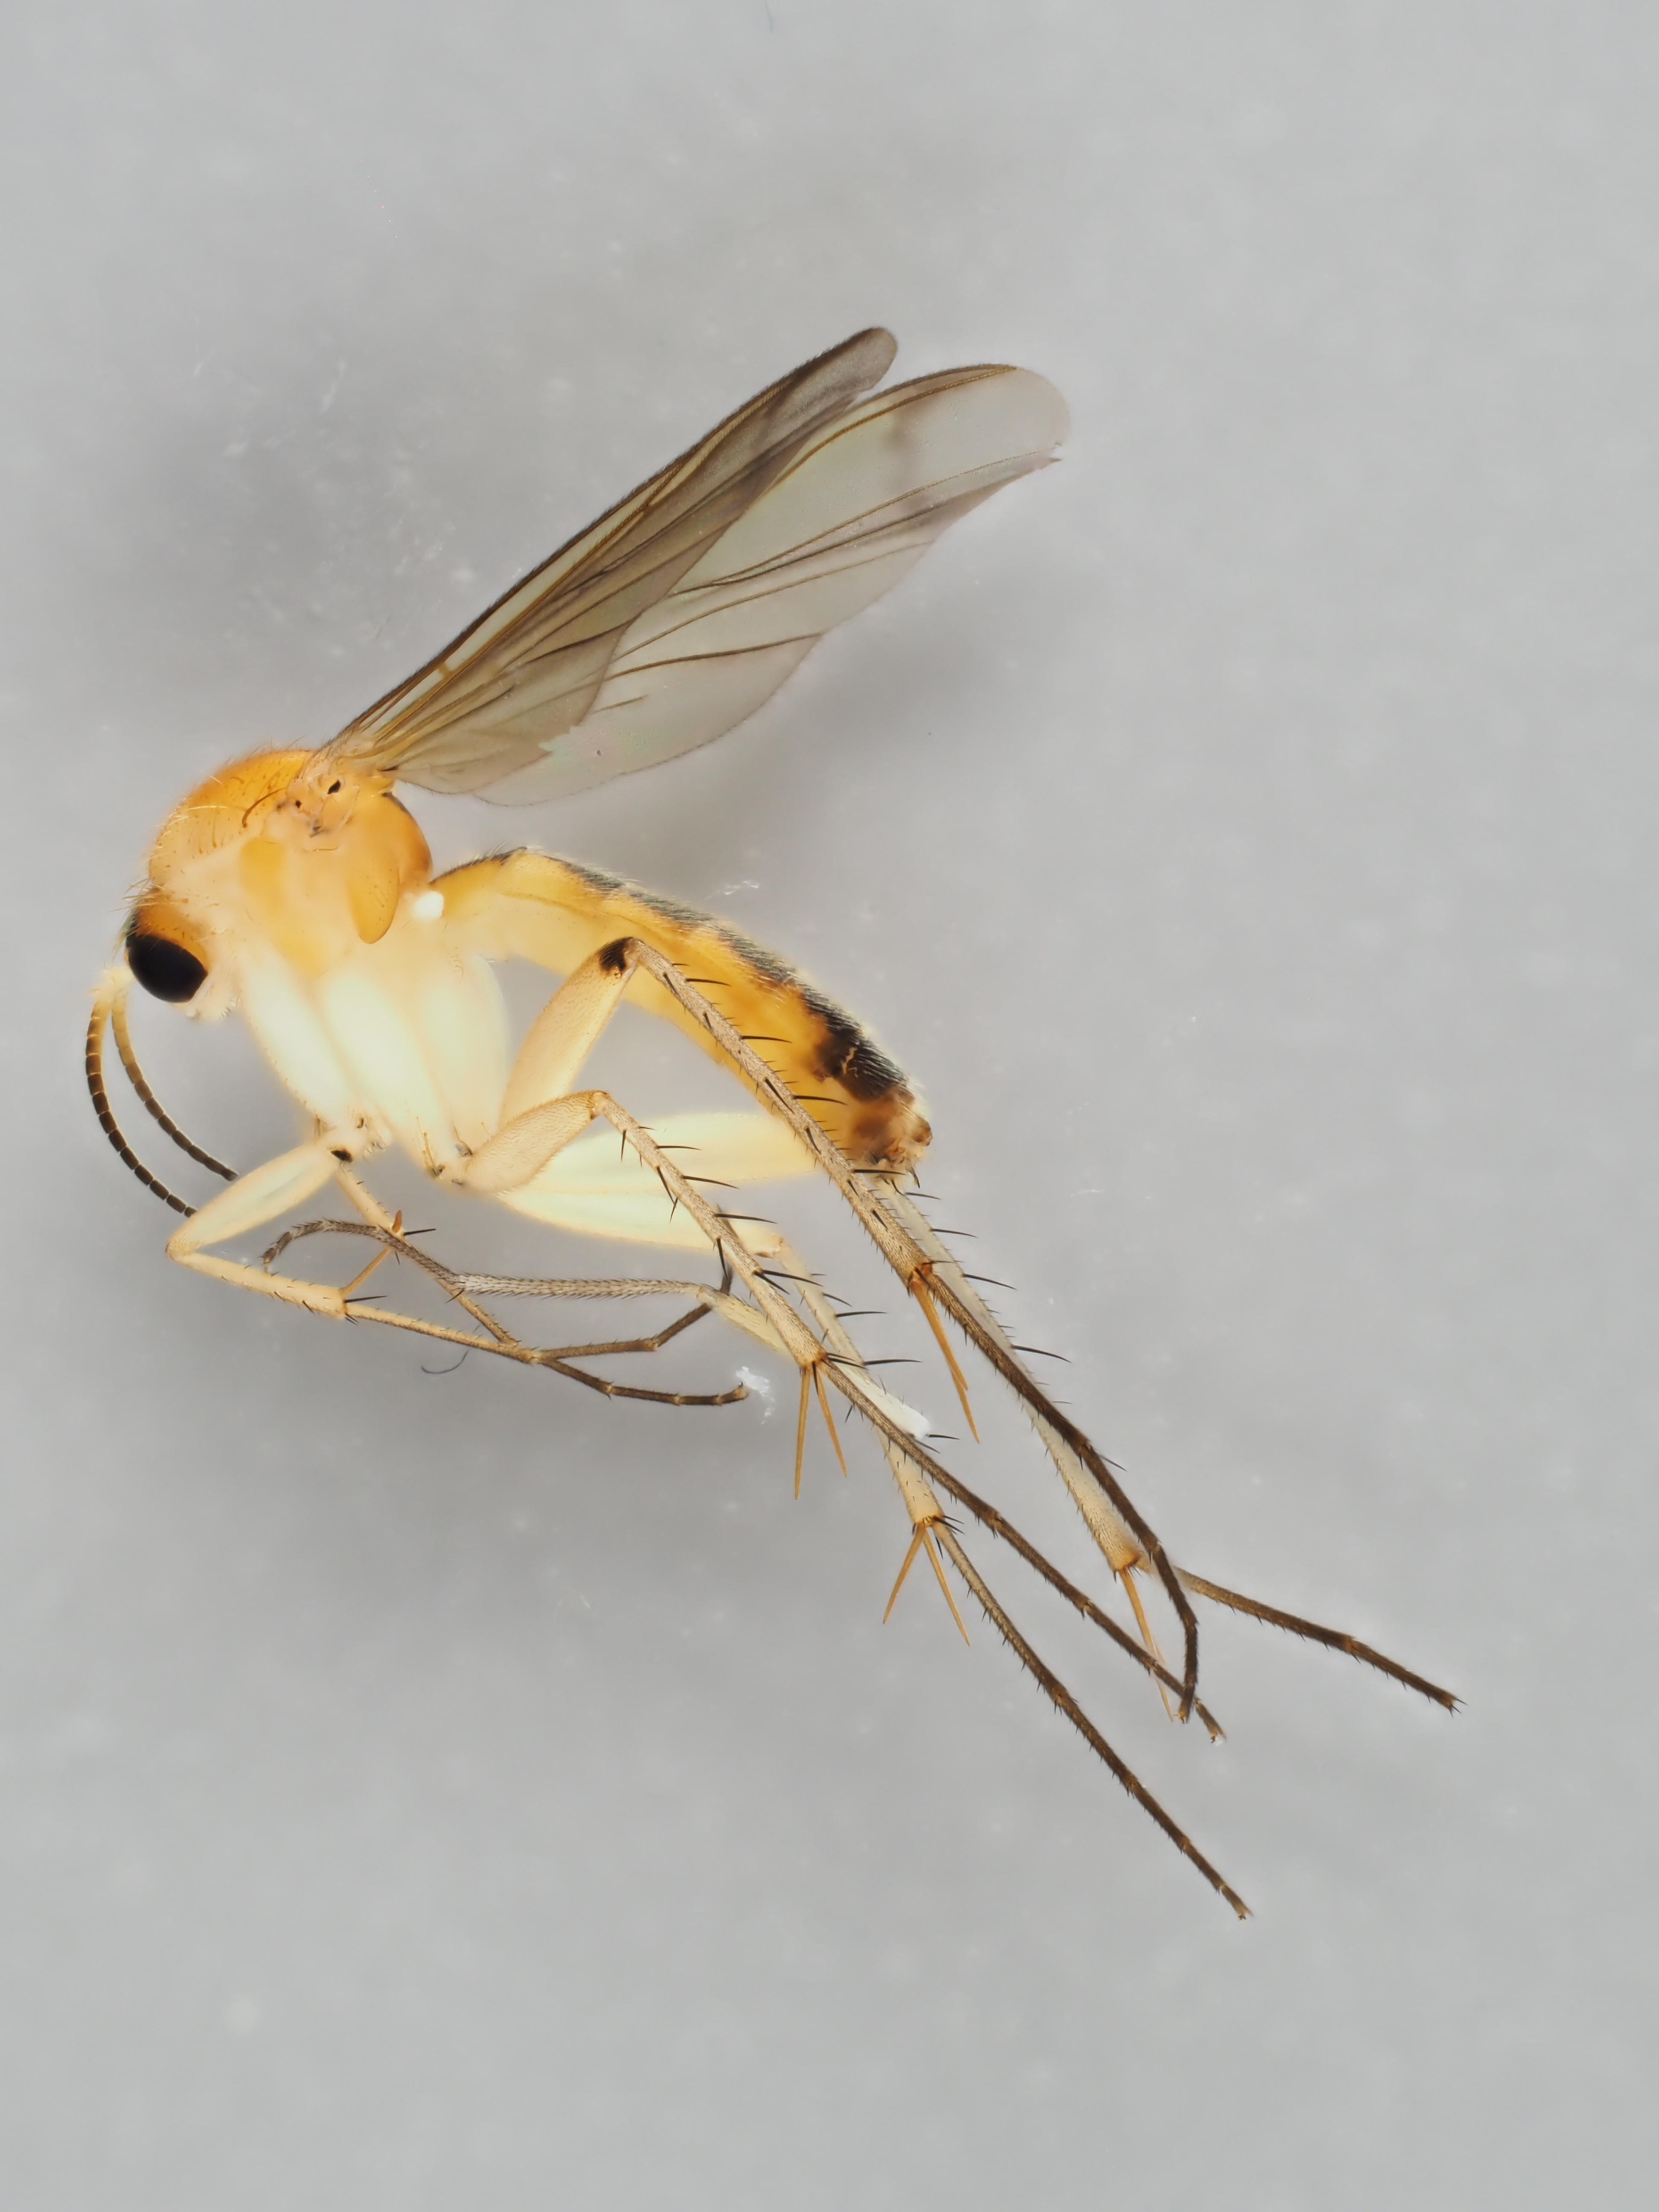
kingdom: Animalia
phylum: Arthropoda
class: Insecta
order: Diptera
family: Mycetophilidae
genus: Leia
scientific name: Leia subfasciata
